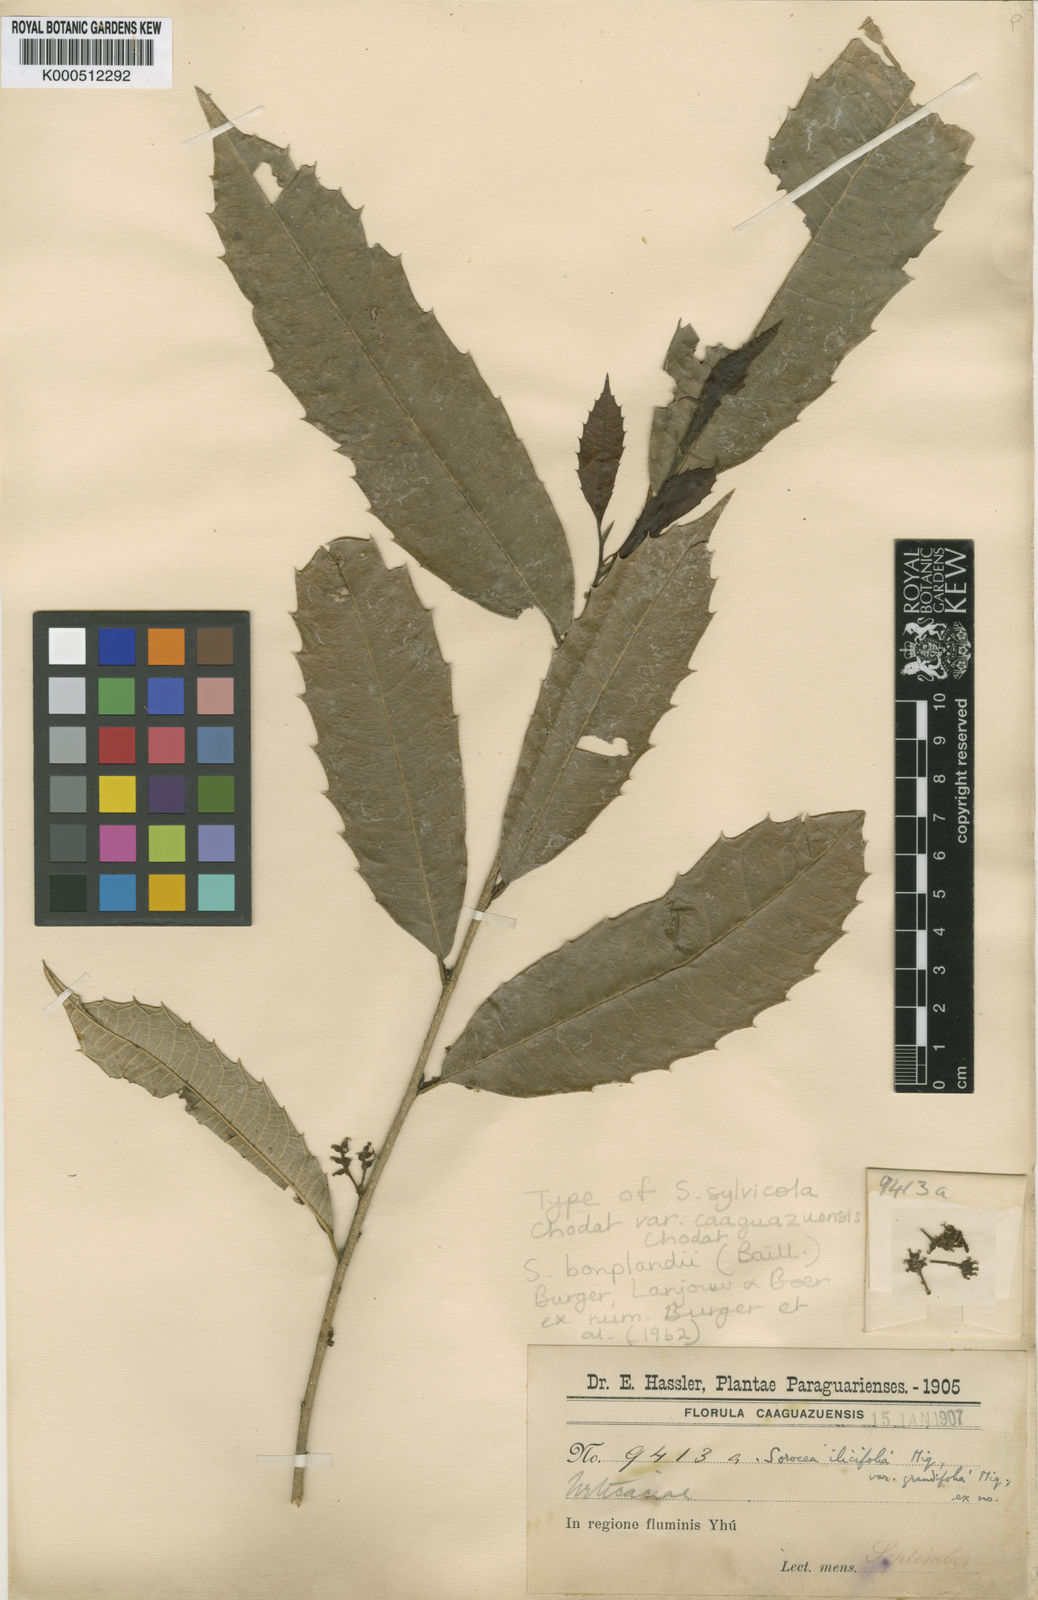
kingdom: Plantae
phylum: Tracheophyta
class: Magnoliopsida
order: Rosales
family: Moraceae
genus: Sorocea
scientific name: Sorocea
